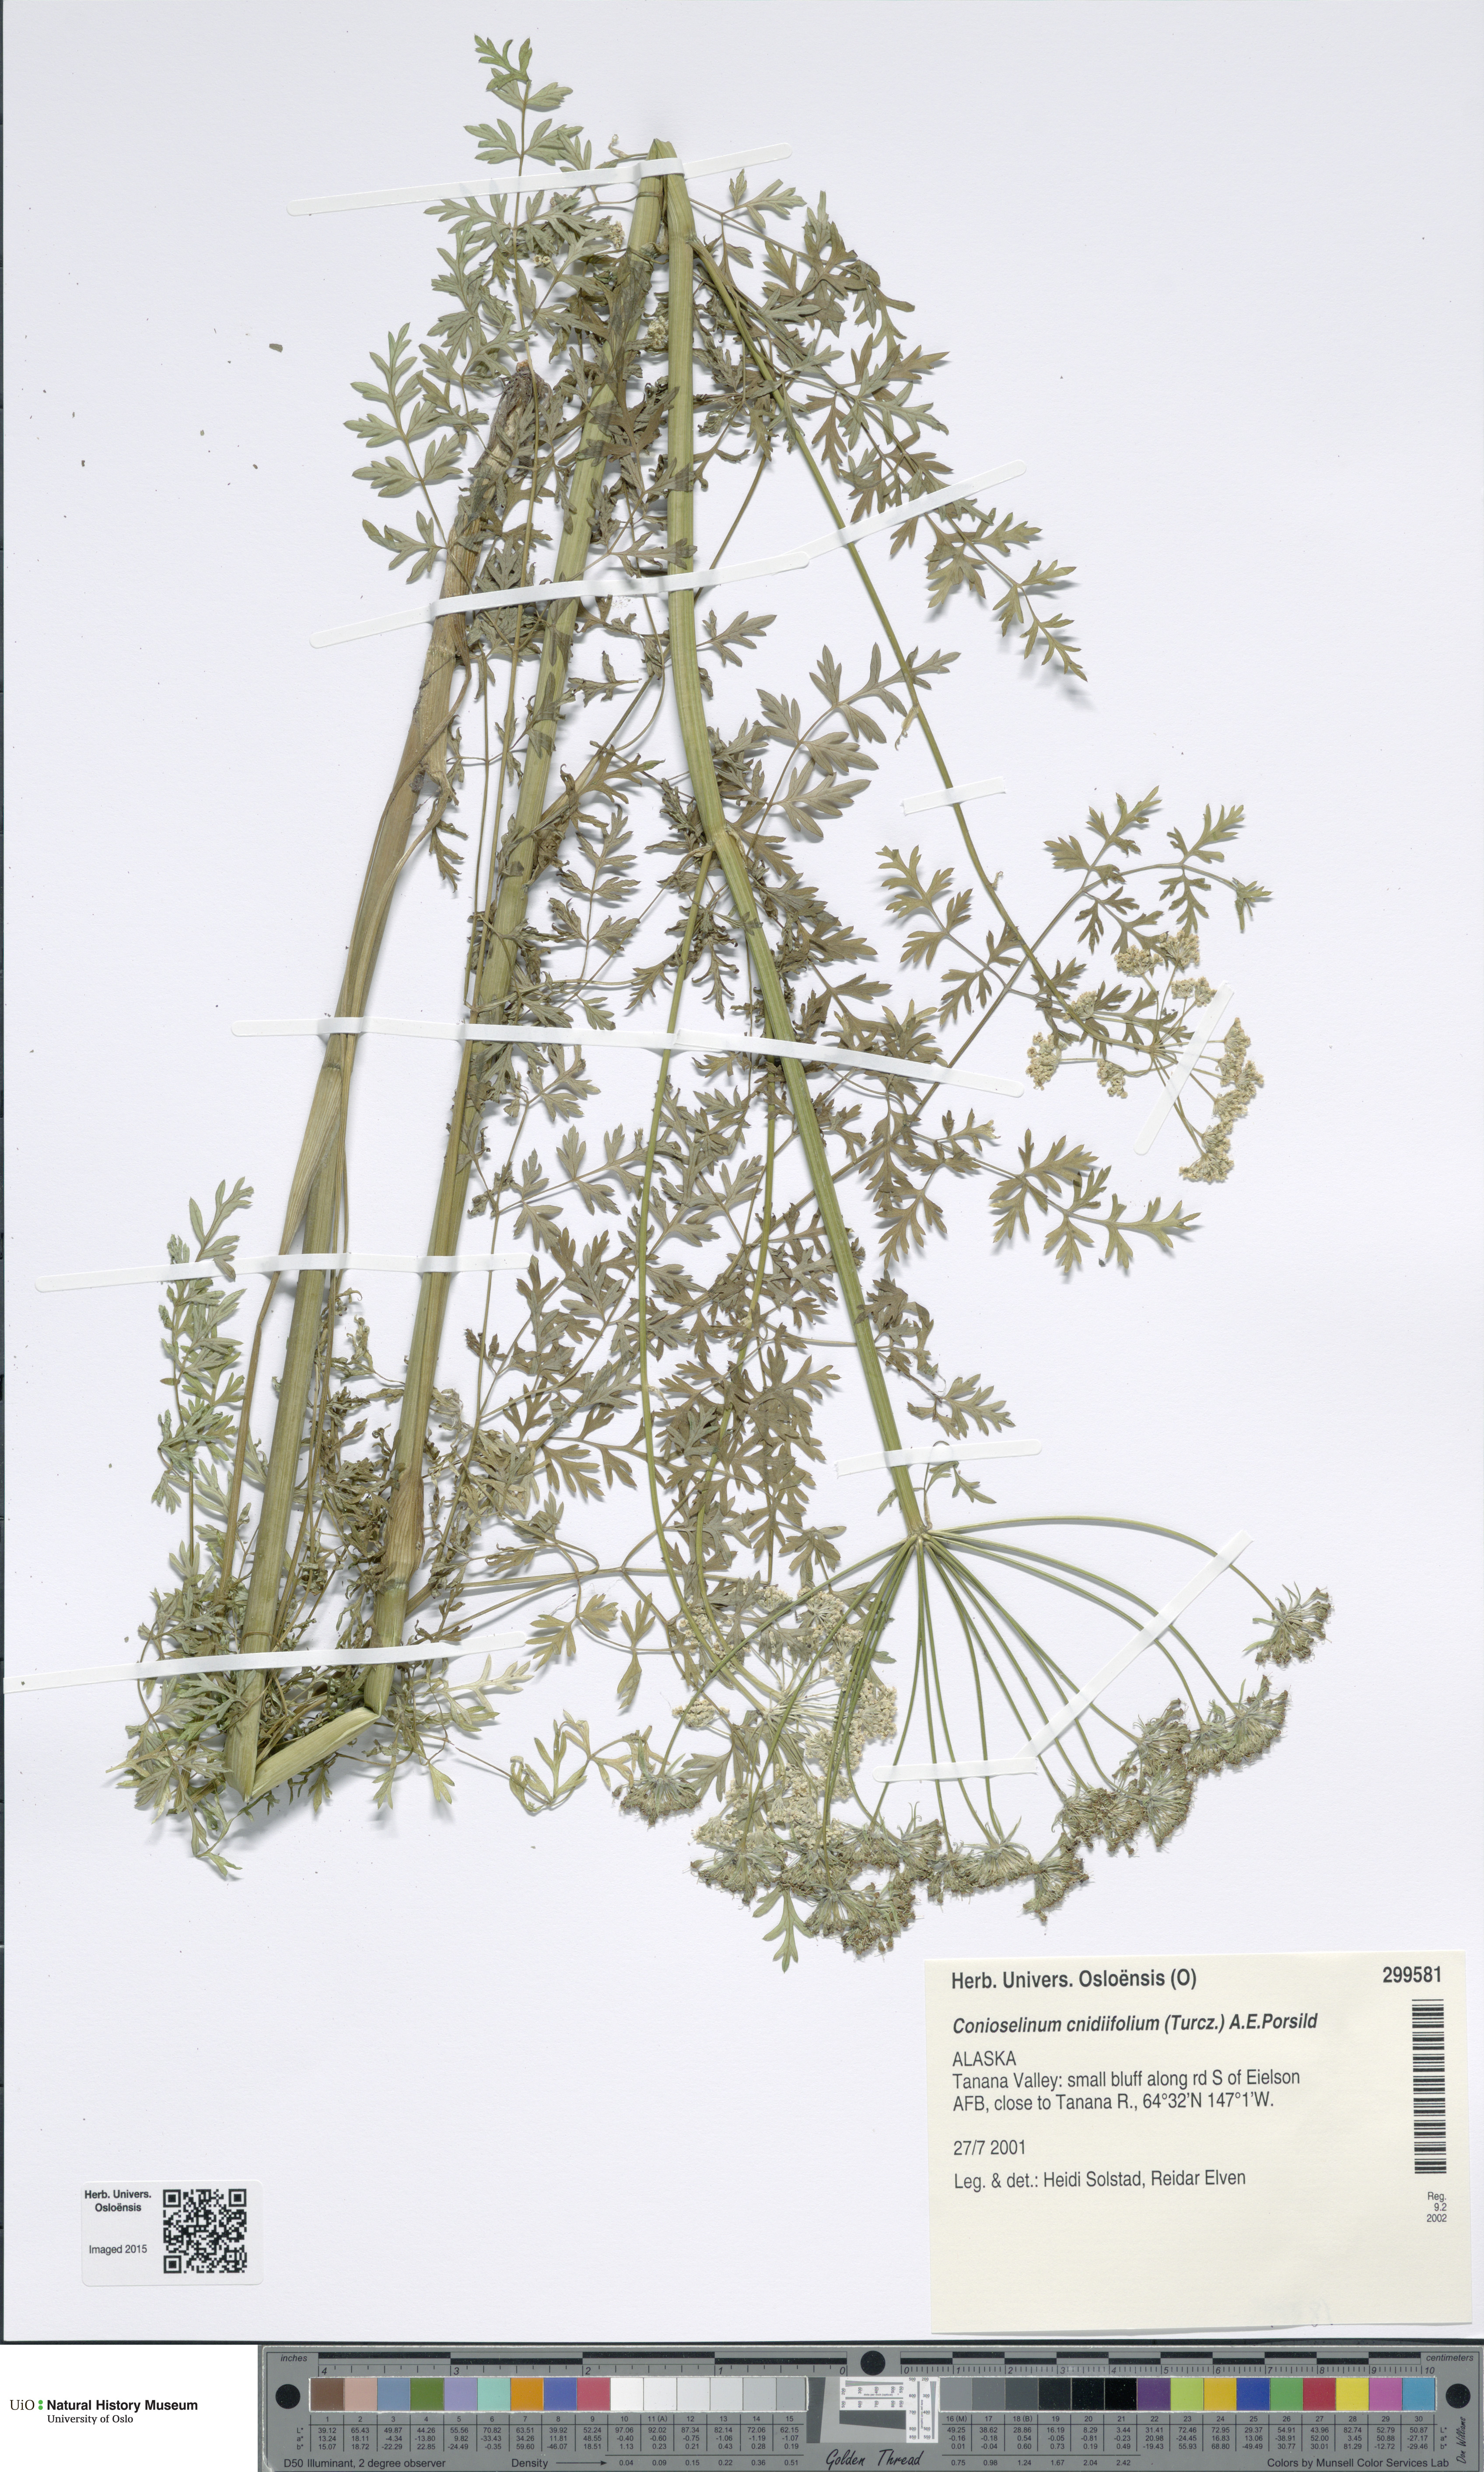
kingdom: Plantae
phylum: Tracheophyta
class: Magnoliopsida
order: Apiales
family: Apiaceae
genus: Cnidium
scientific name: Cnidium cnidiifolium
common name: Northern hemlock-parsley
